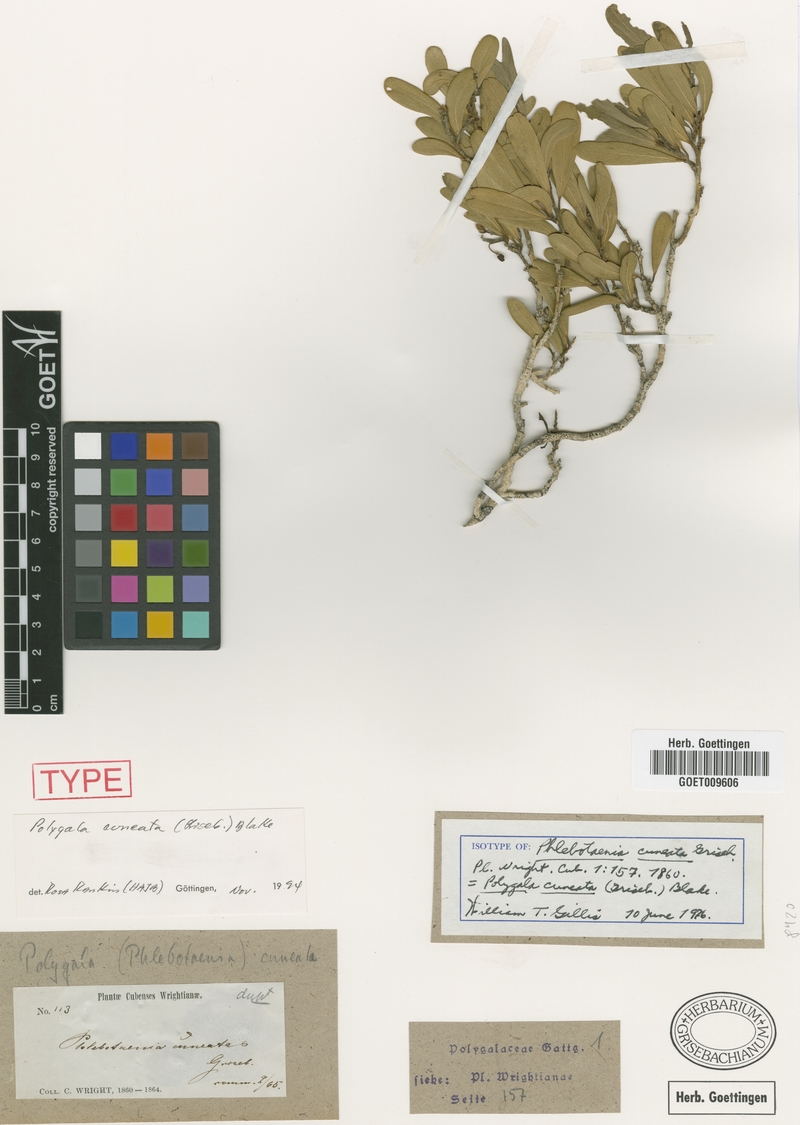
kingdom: Plantae
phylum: Tracheophyta
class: Magnoliopsida
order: Fabales
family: Polygalaceae
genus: Phlebotaenia
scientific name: Phlebotaenia cuneata
